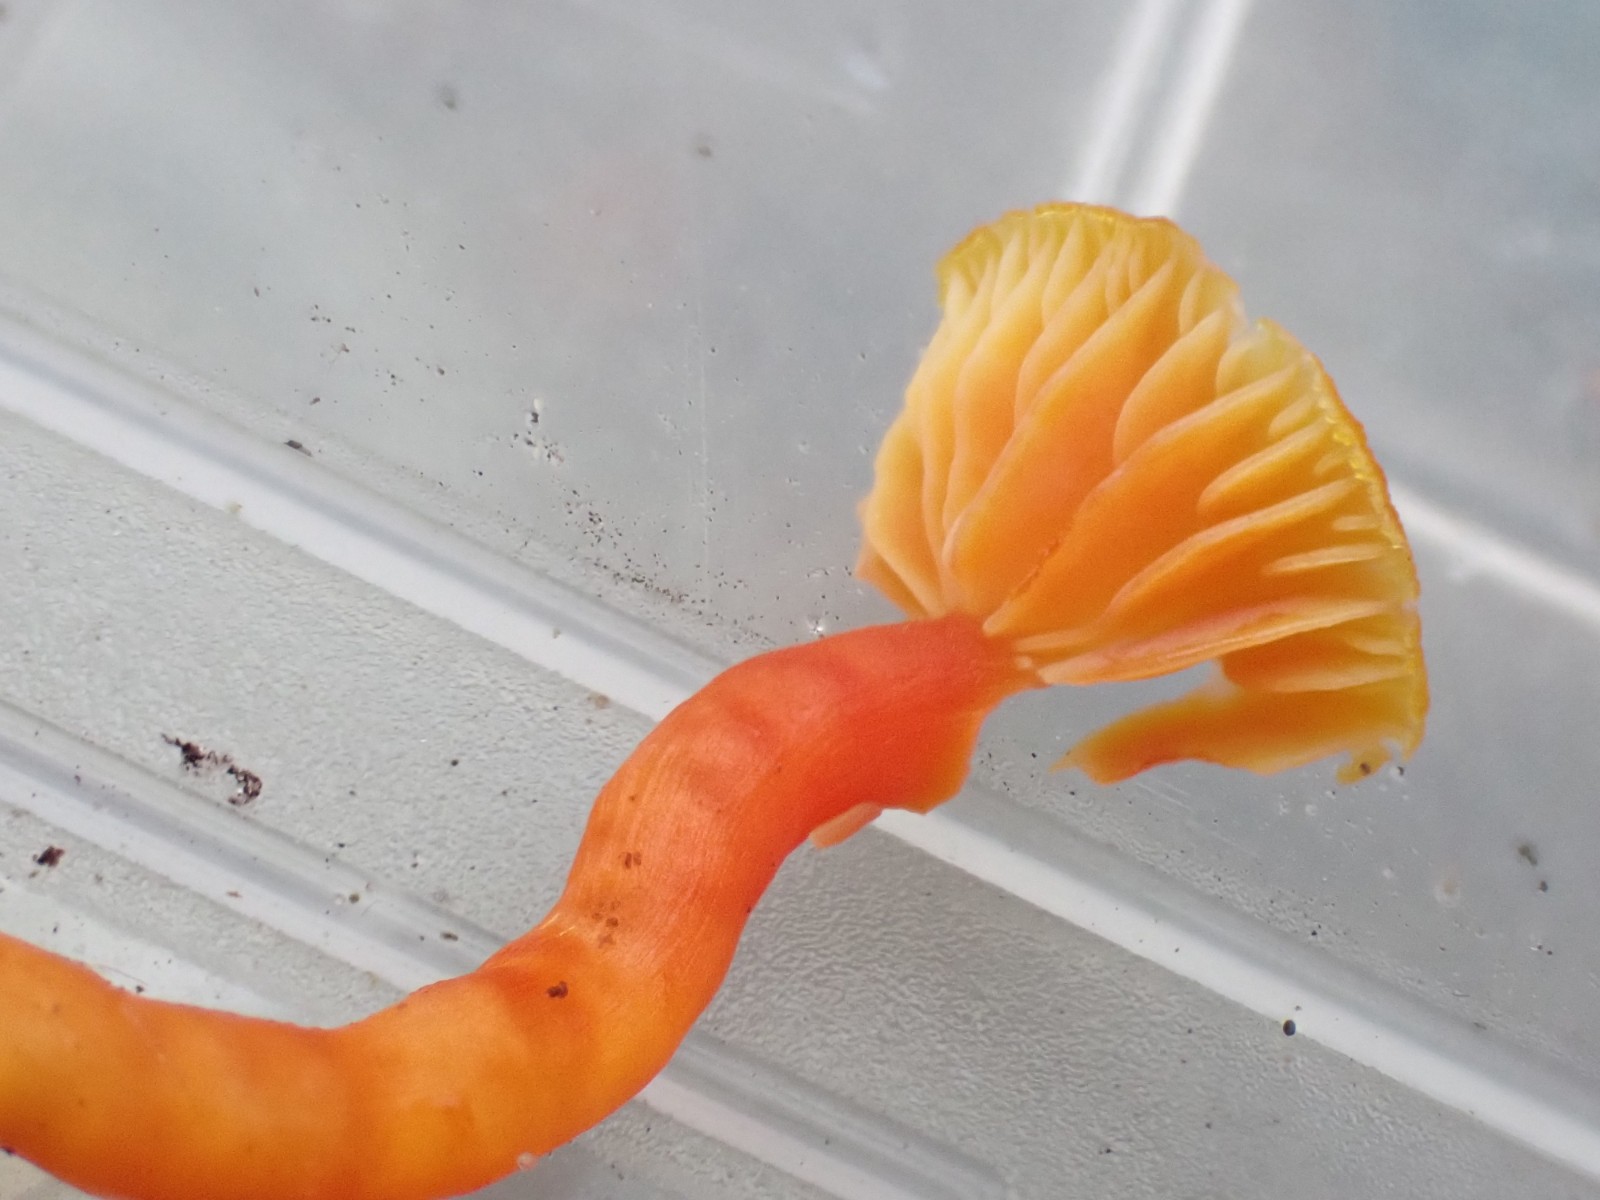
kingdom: Fungi
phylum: Basidiomycota
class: Agaricomycetes
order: Agaricales
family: Hygrophoraceae
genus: Hygrocybe
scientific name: Hygrocybe insipida
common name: liden vokshat
